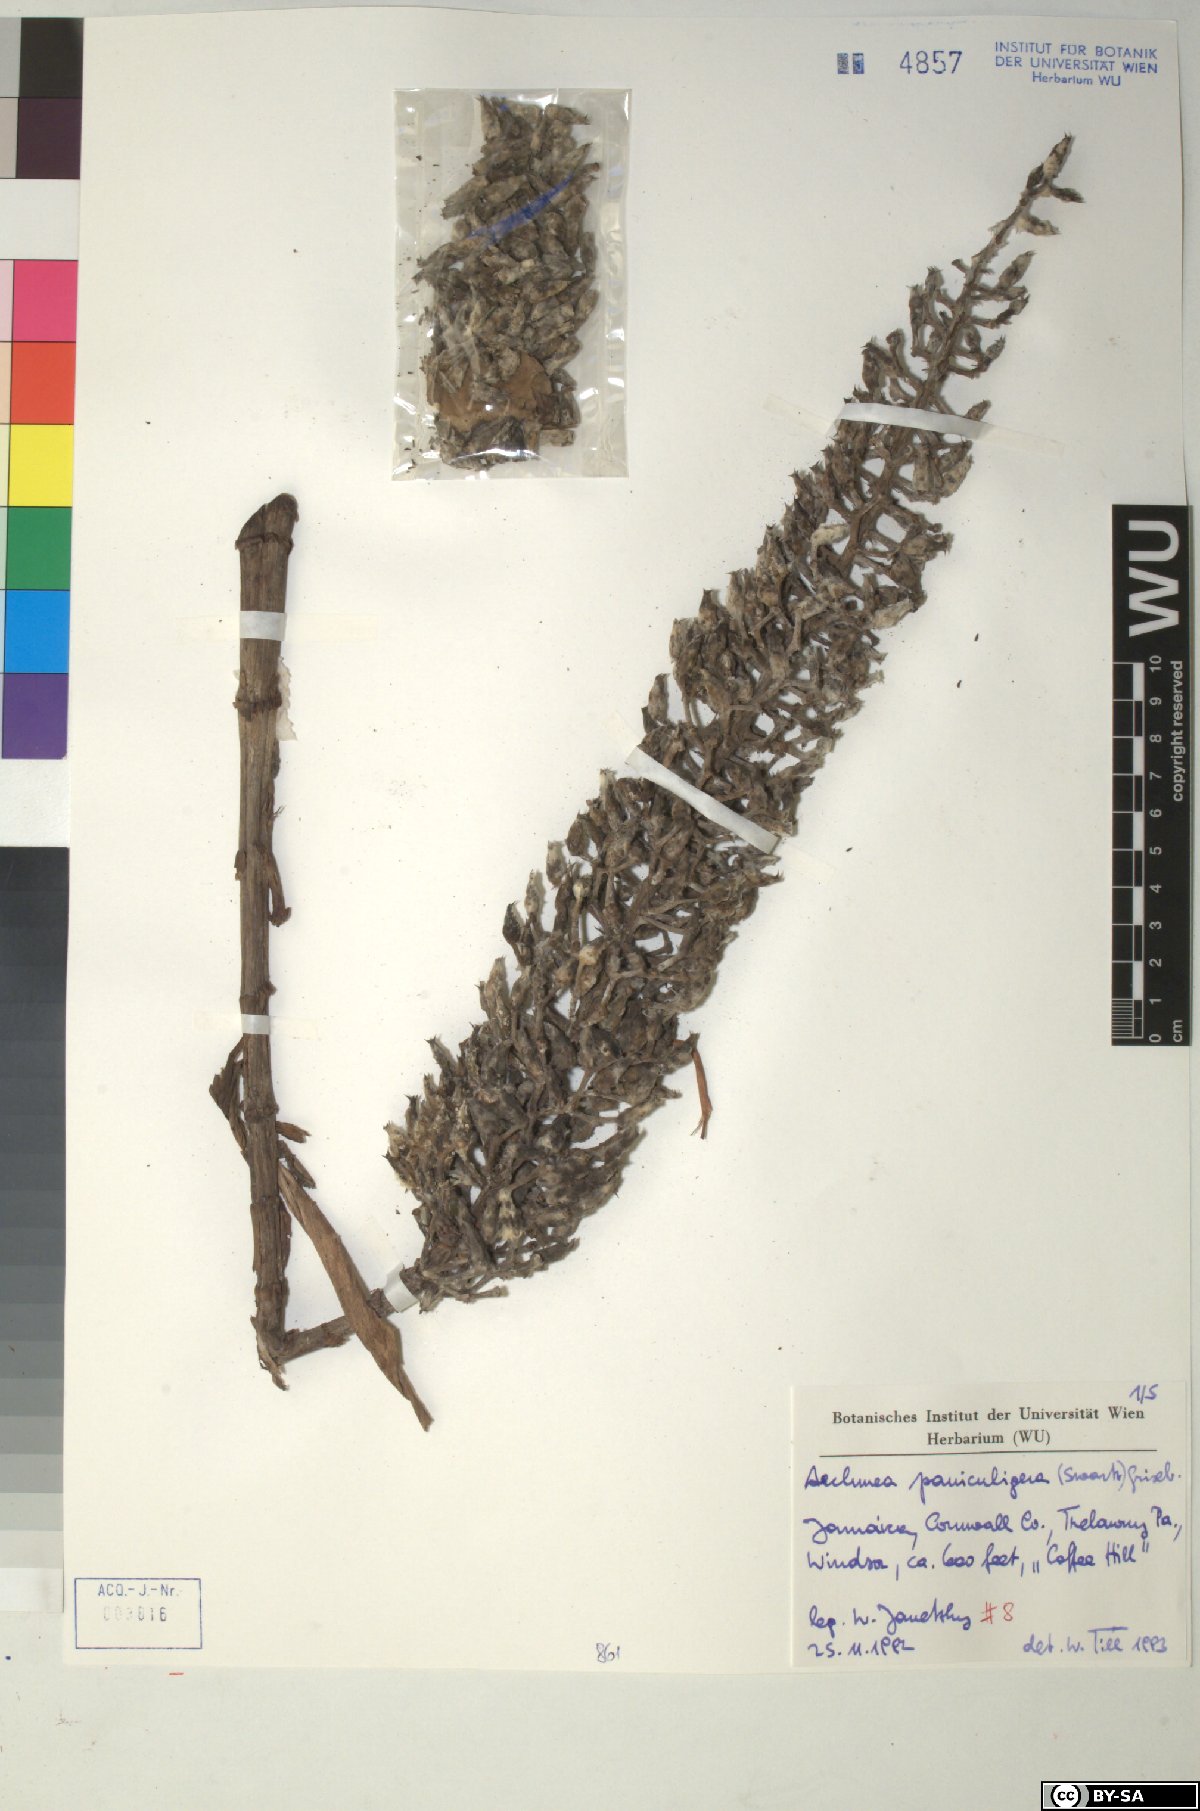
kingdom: Plantae
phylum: Tracheophyta
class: Liliopsida
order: Poales
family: Bromeliaceae
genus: Aechmea
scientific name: Aechmea paniculigera
